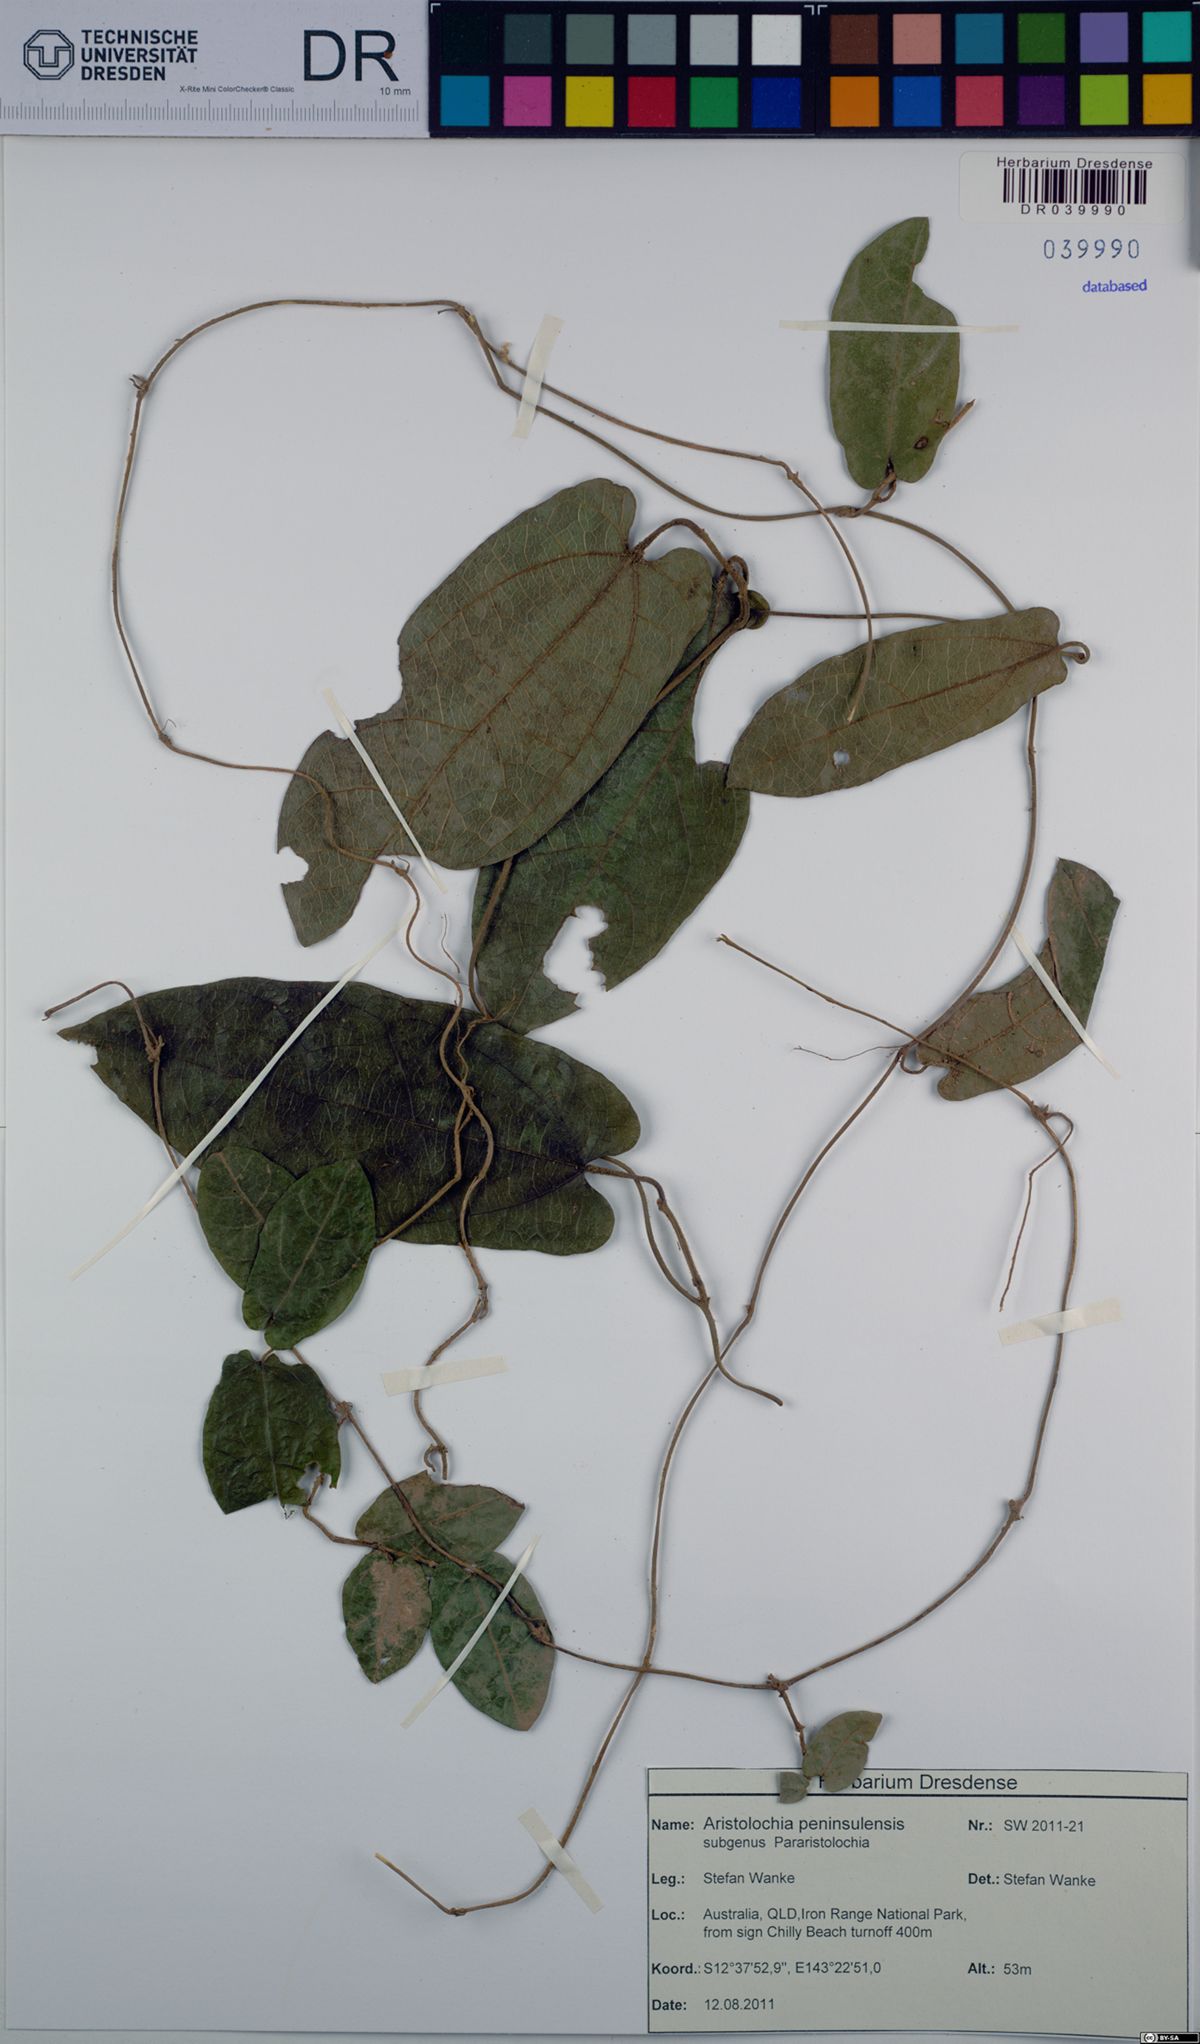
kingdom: Plantae
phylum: Tracheophyta
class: Magnoliopsida
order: Piperales
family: Aristolochiaceae
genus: Aristolochia
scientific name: Aristolochia peninsulensis
